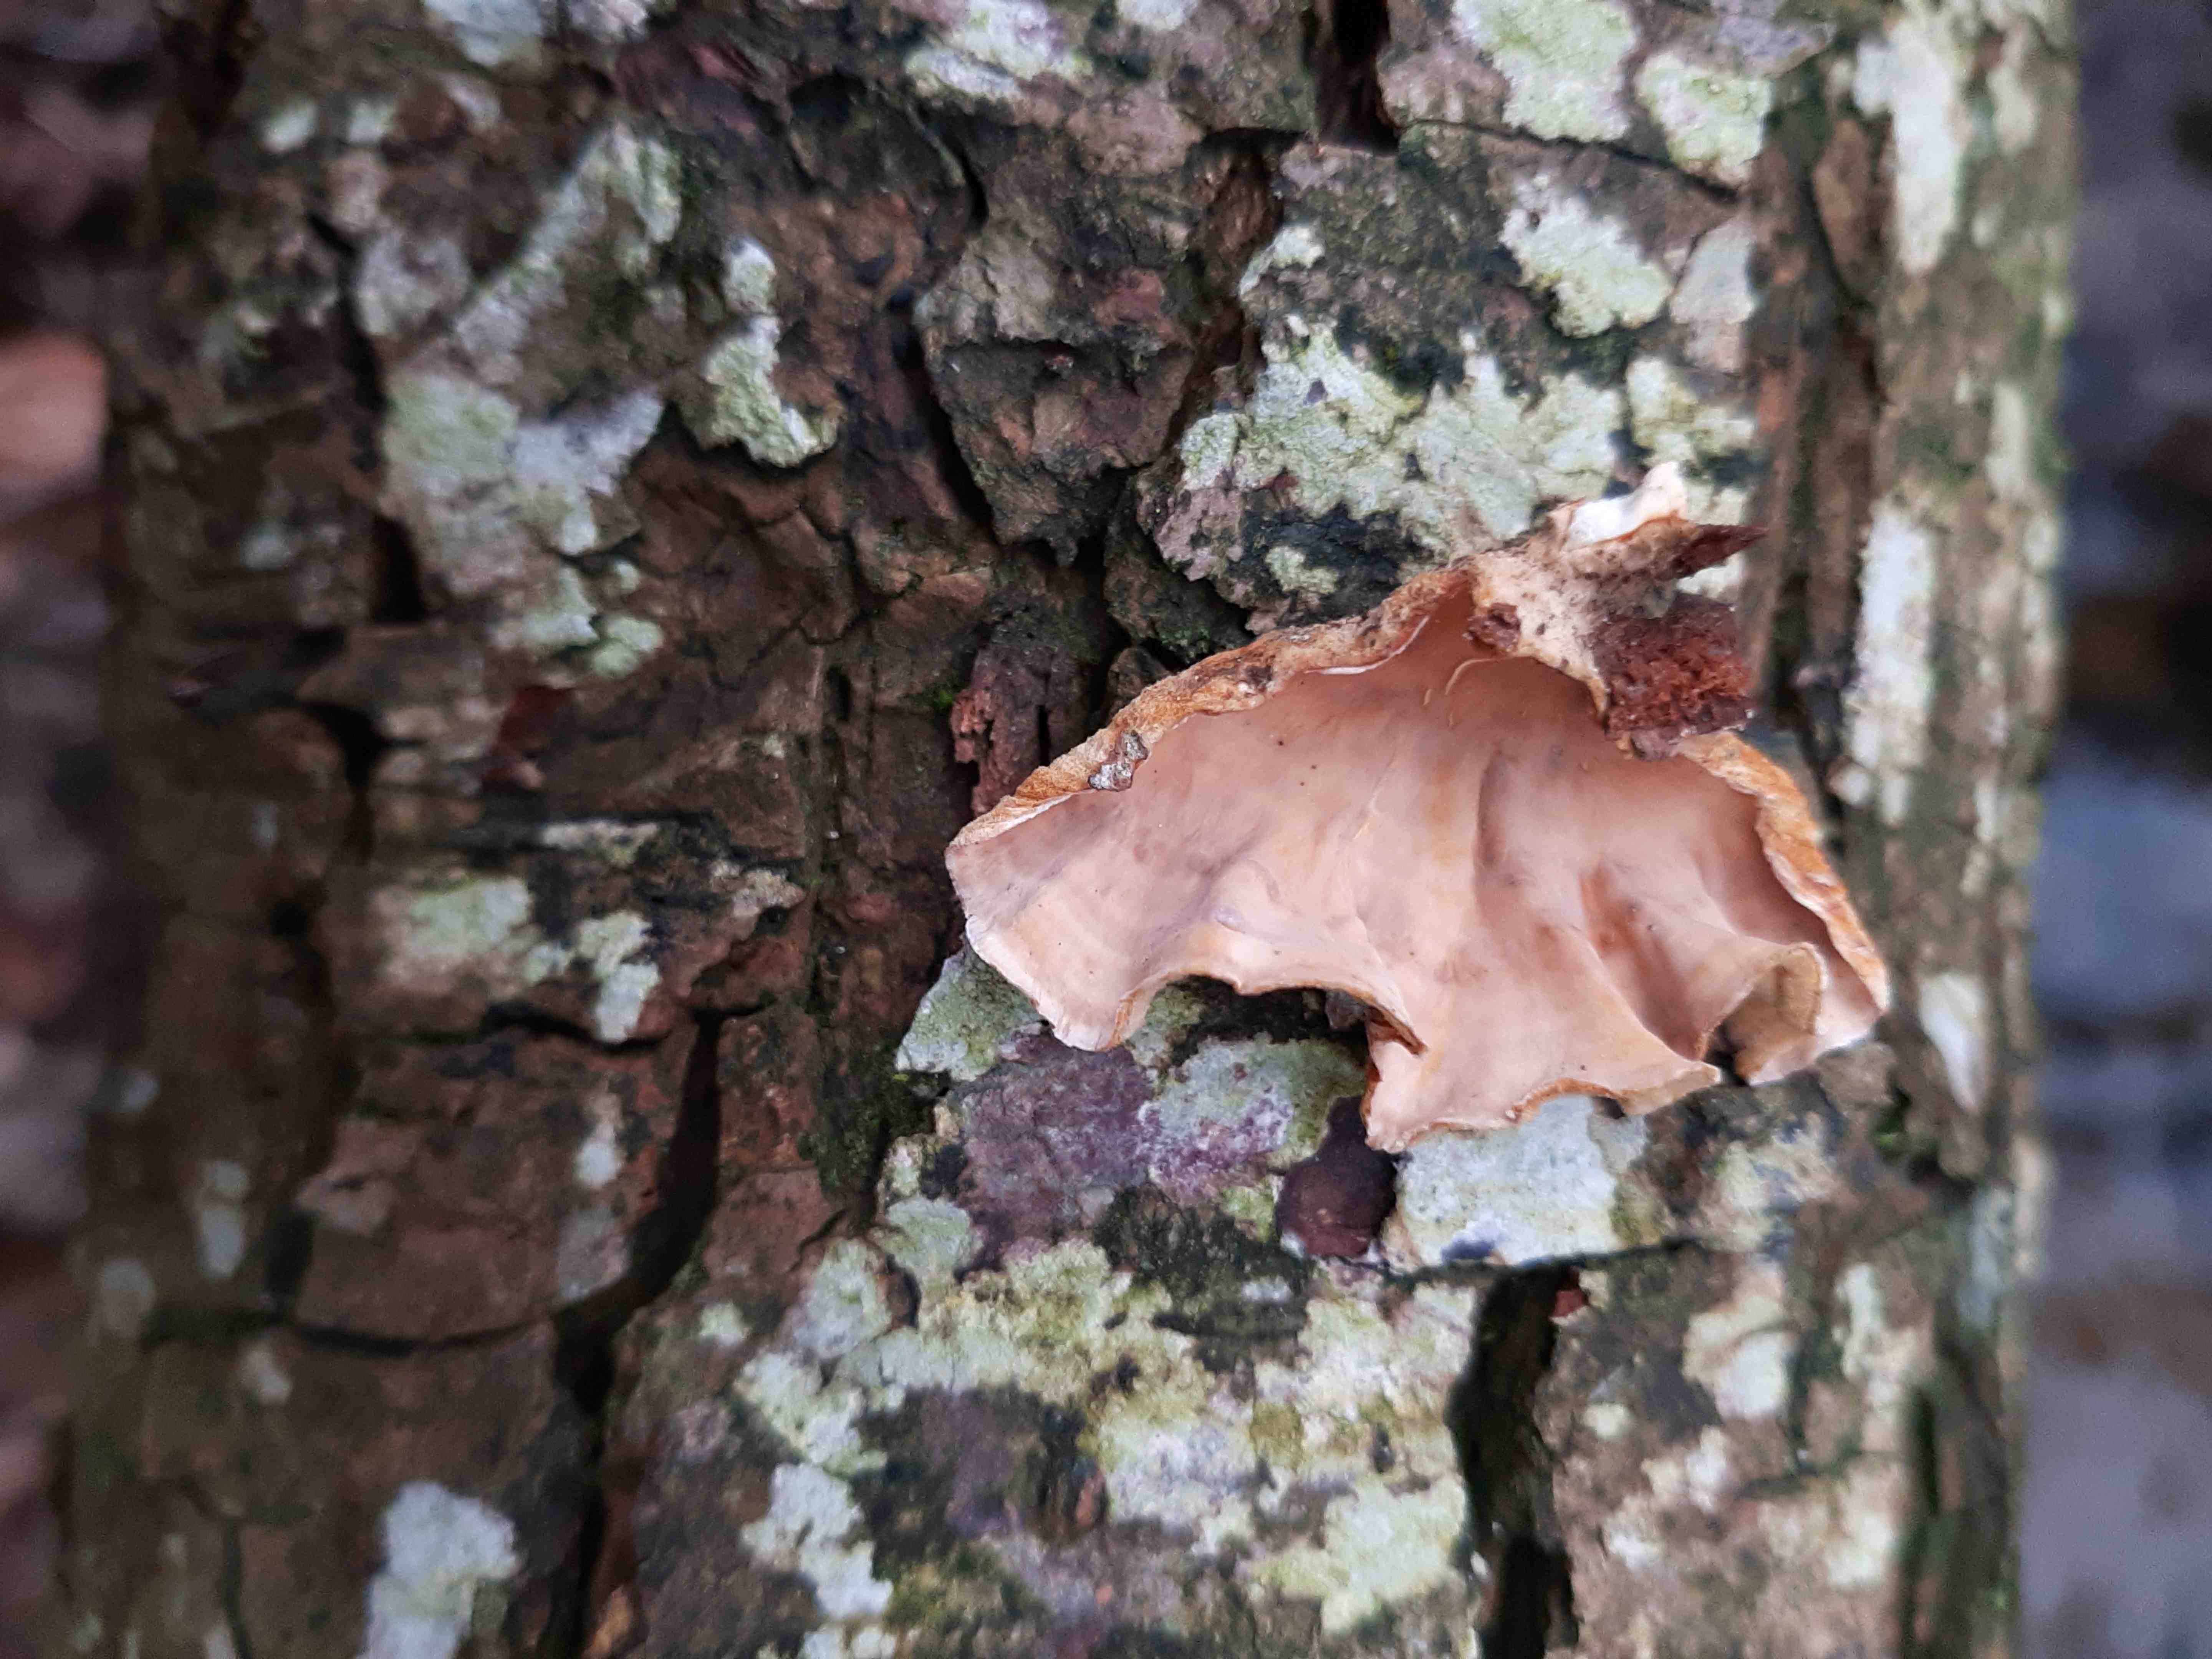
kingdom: Fungi
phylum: Basidiomycota
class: Agaricomycetes
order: Russulales
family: Stereaceae
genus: Stereum
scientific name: Stereum hirsutum
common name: håret lædersvamp
